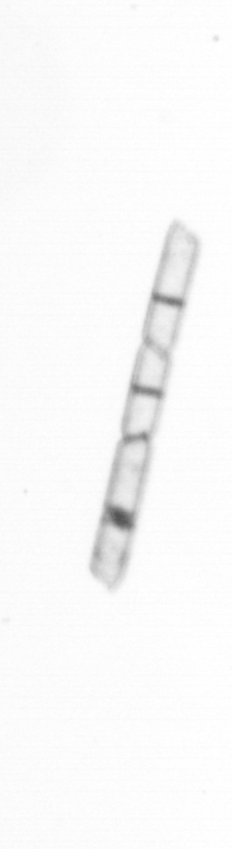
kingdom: Chromista
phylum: Ochrophyta
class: Bacillariophyceae
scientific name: Bacillariophyceae
